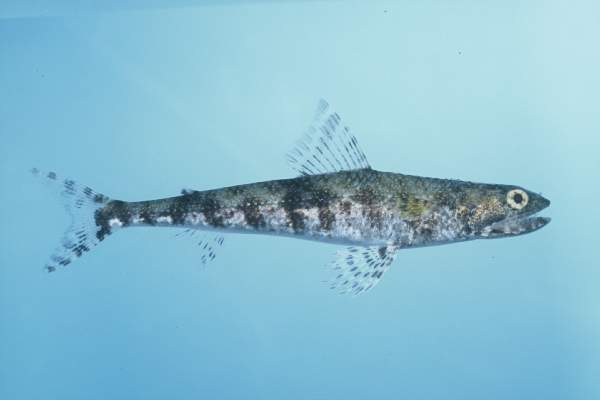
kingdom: Animalia
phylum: Chordata
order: Aulopiformes
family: Synodontidae
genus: Saurida
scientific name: Saurida gracilis
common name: Slender lizardfish
